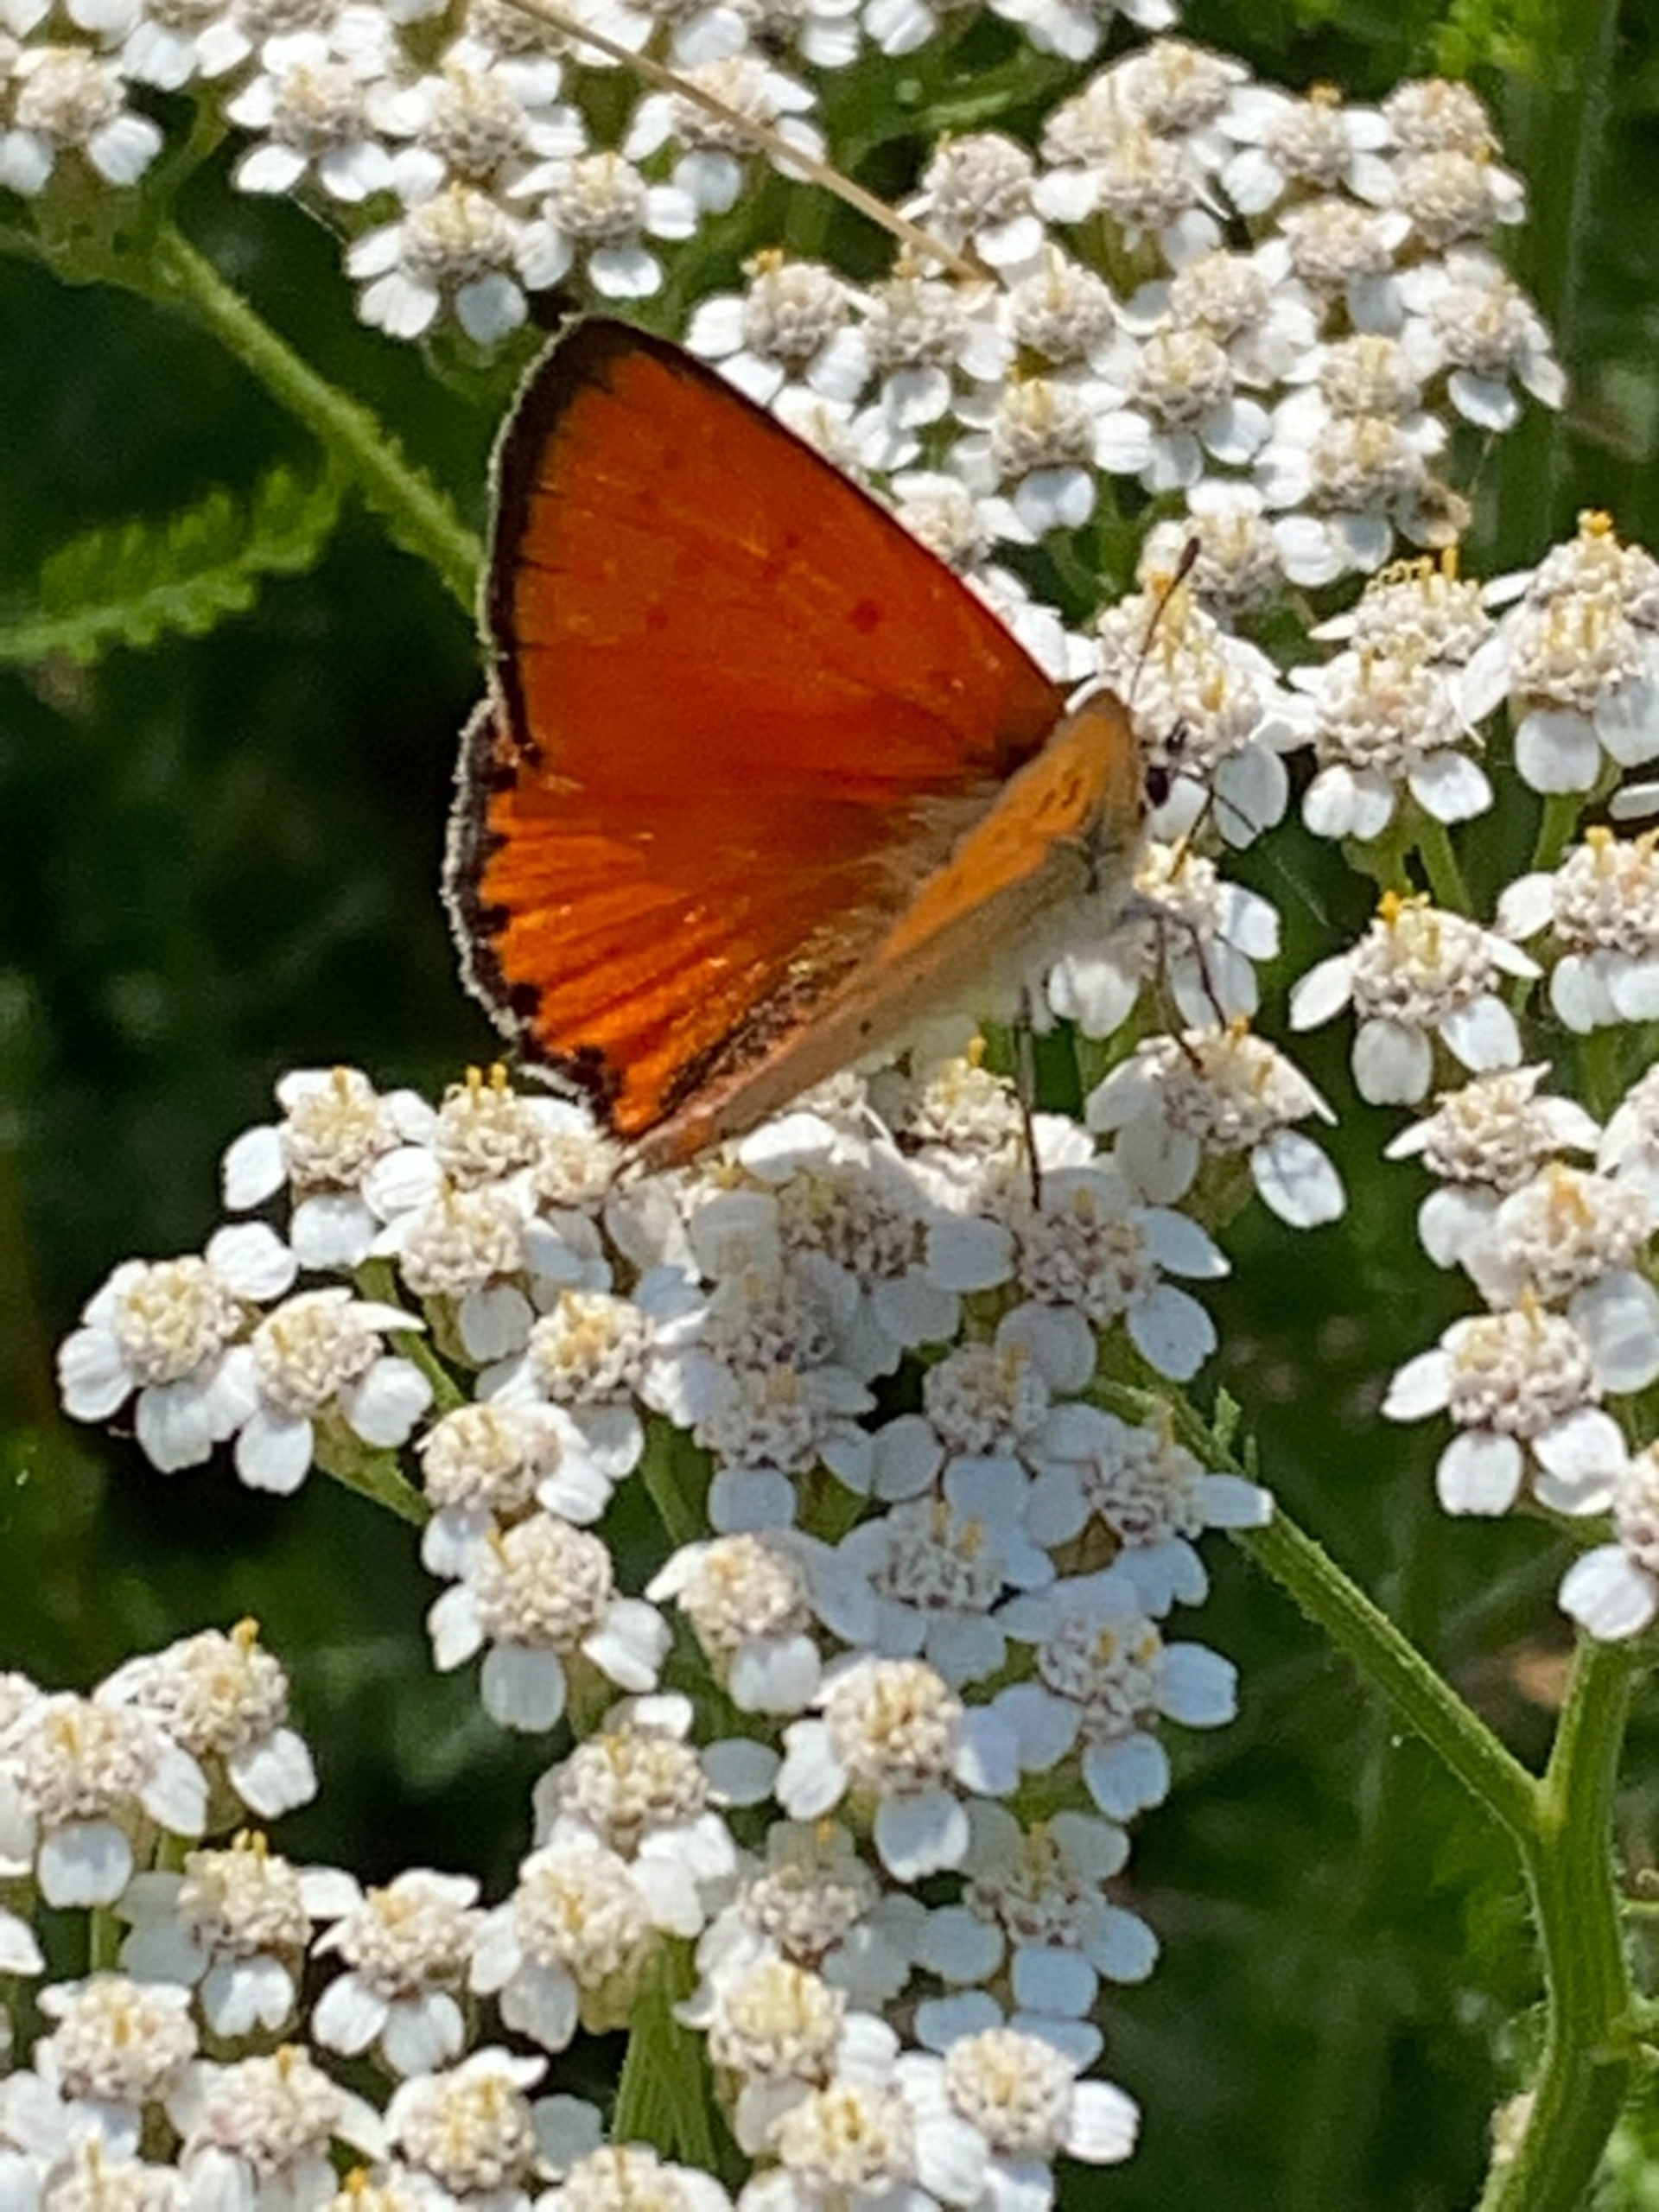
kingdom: Animalia
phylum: Arthropoda
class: Insecta
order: Lepidoptera
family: Lycaenidae
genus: Lycaena
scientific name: Lycaena virgaureae
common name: Dukatsommerfugl
